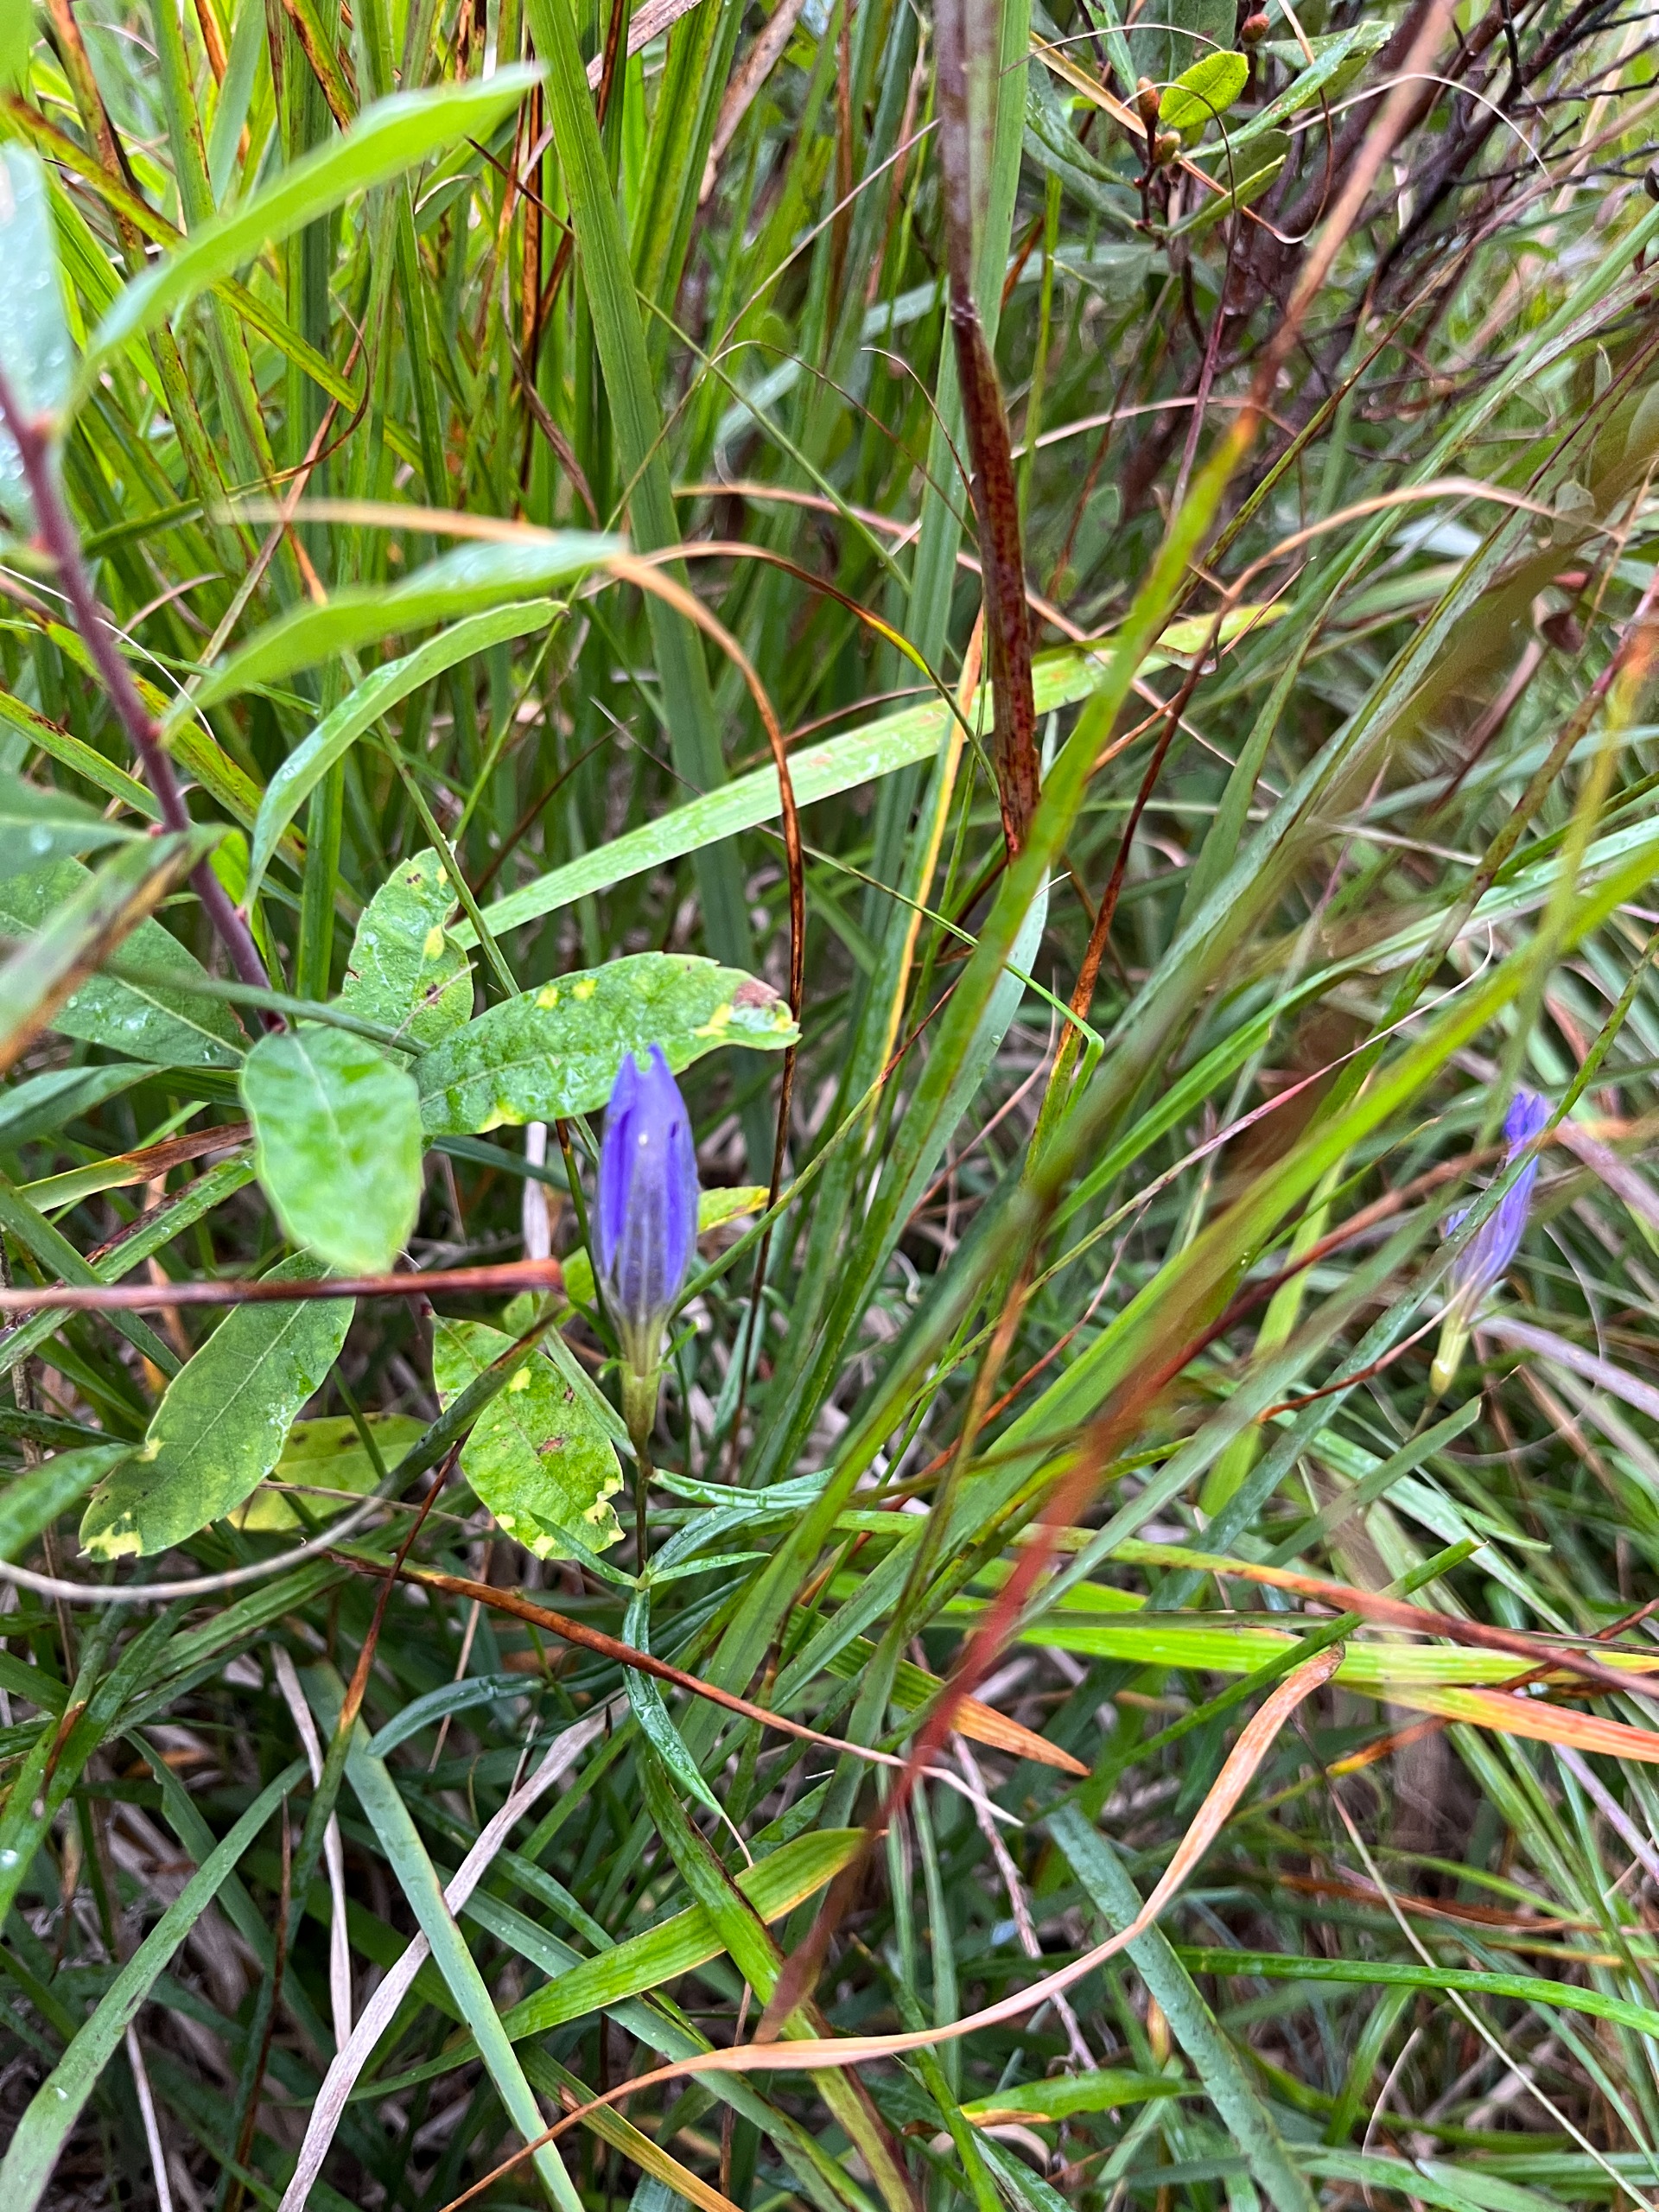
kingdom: Plantae
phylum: Tracheophyta
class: Magnoliopsida
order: Gentianales
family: Gentianaceae
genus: Gentiana
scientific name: Gentiana pneumonanthe
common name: Klokke-ensian
